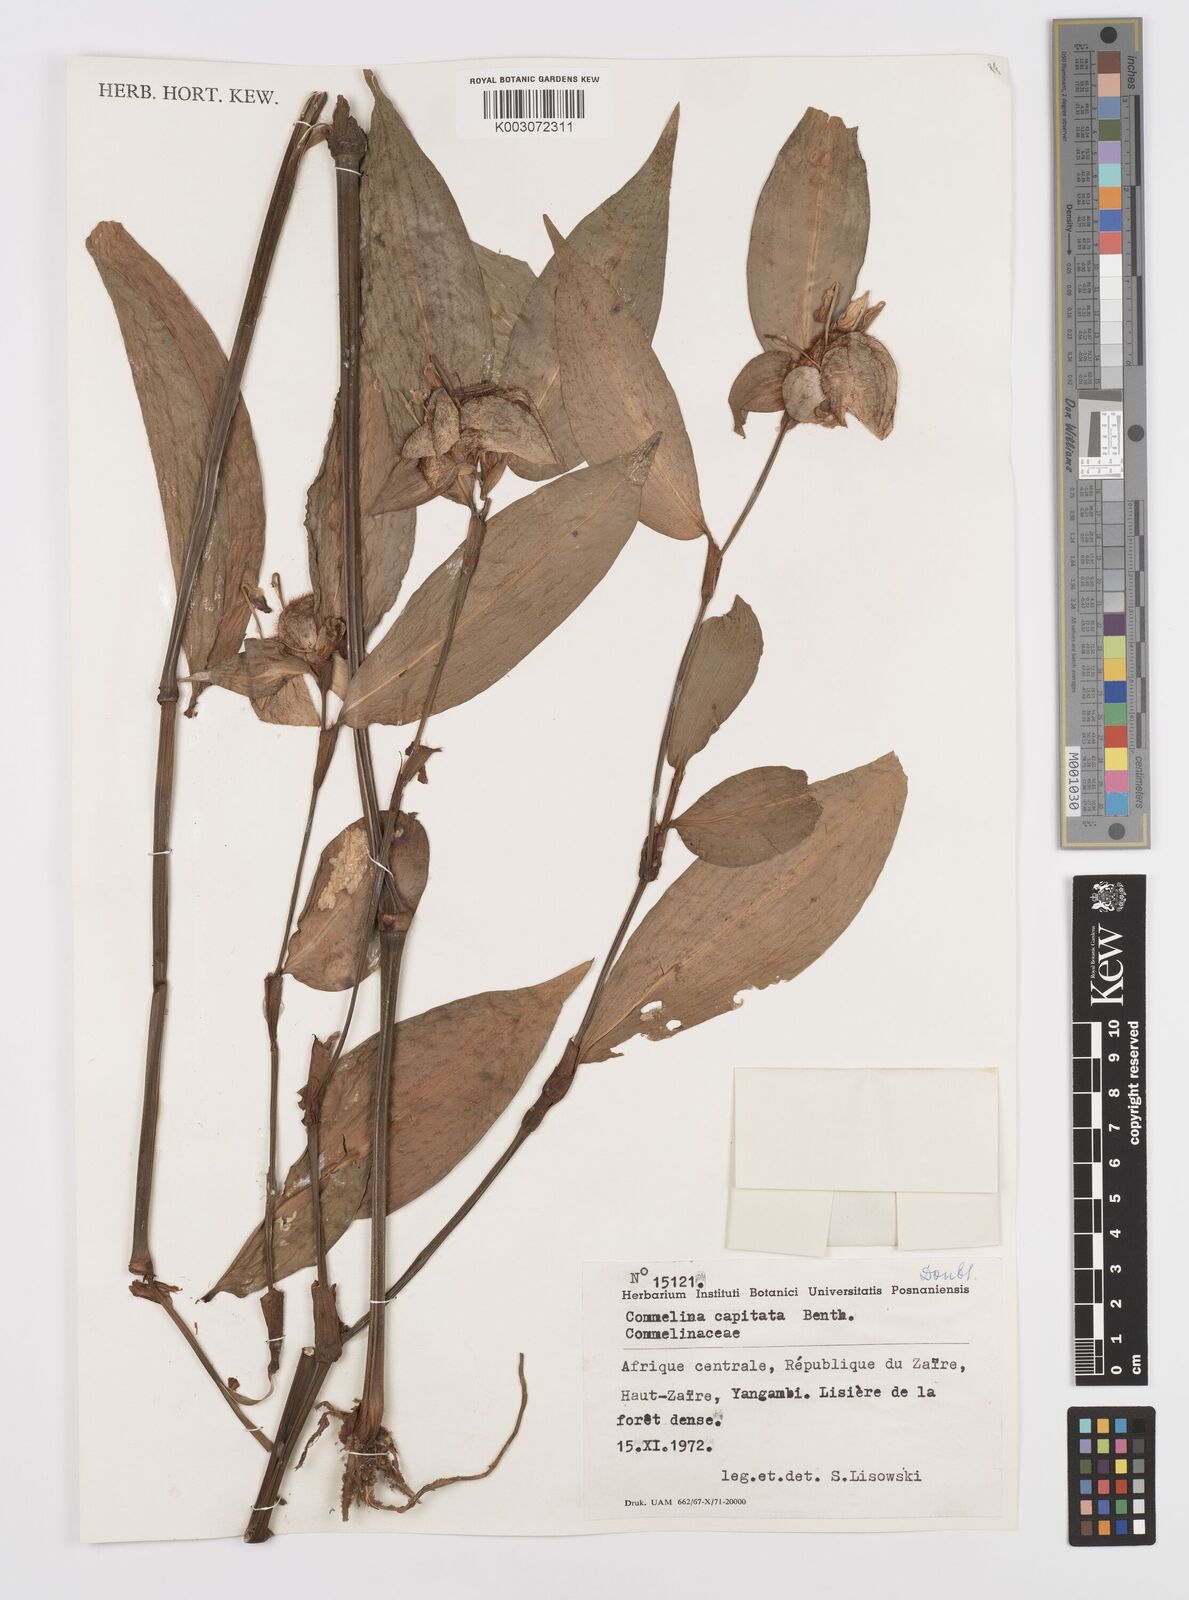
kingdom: Plantae
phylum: Tracheophyta
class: Liliopsida
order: Commelinales
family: Commelinaceae
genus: Commelina
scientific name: Commelina capitata
